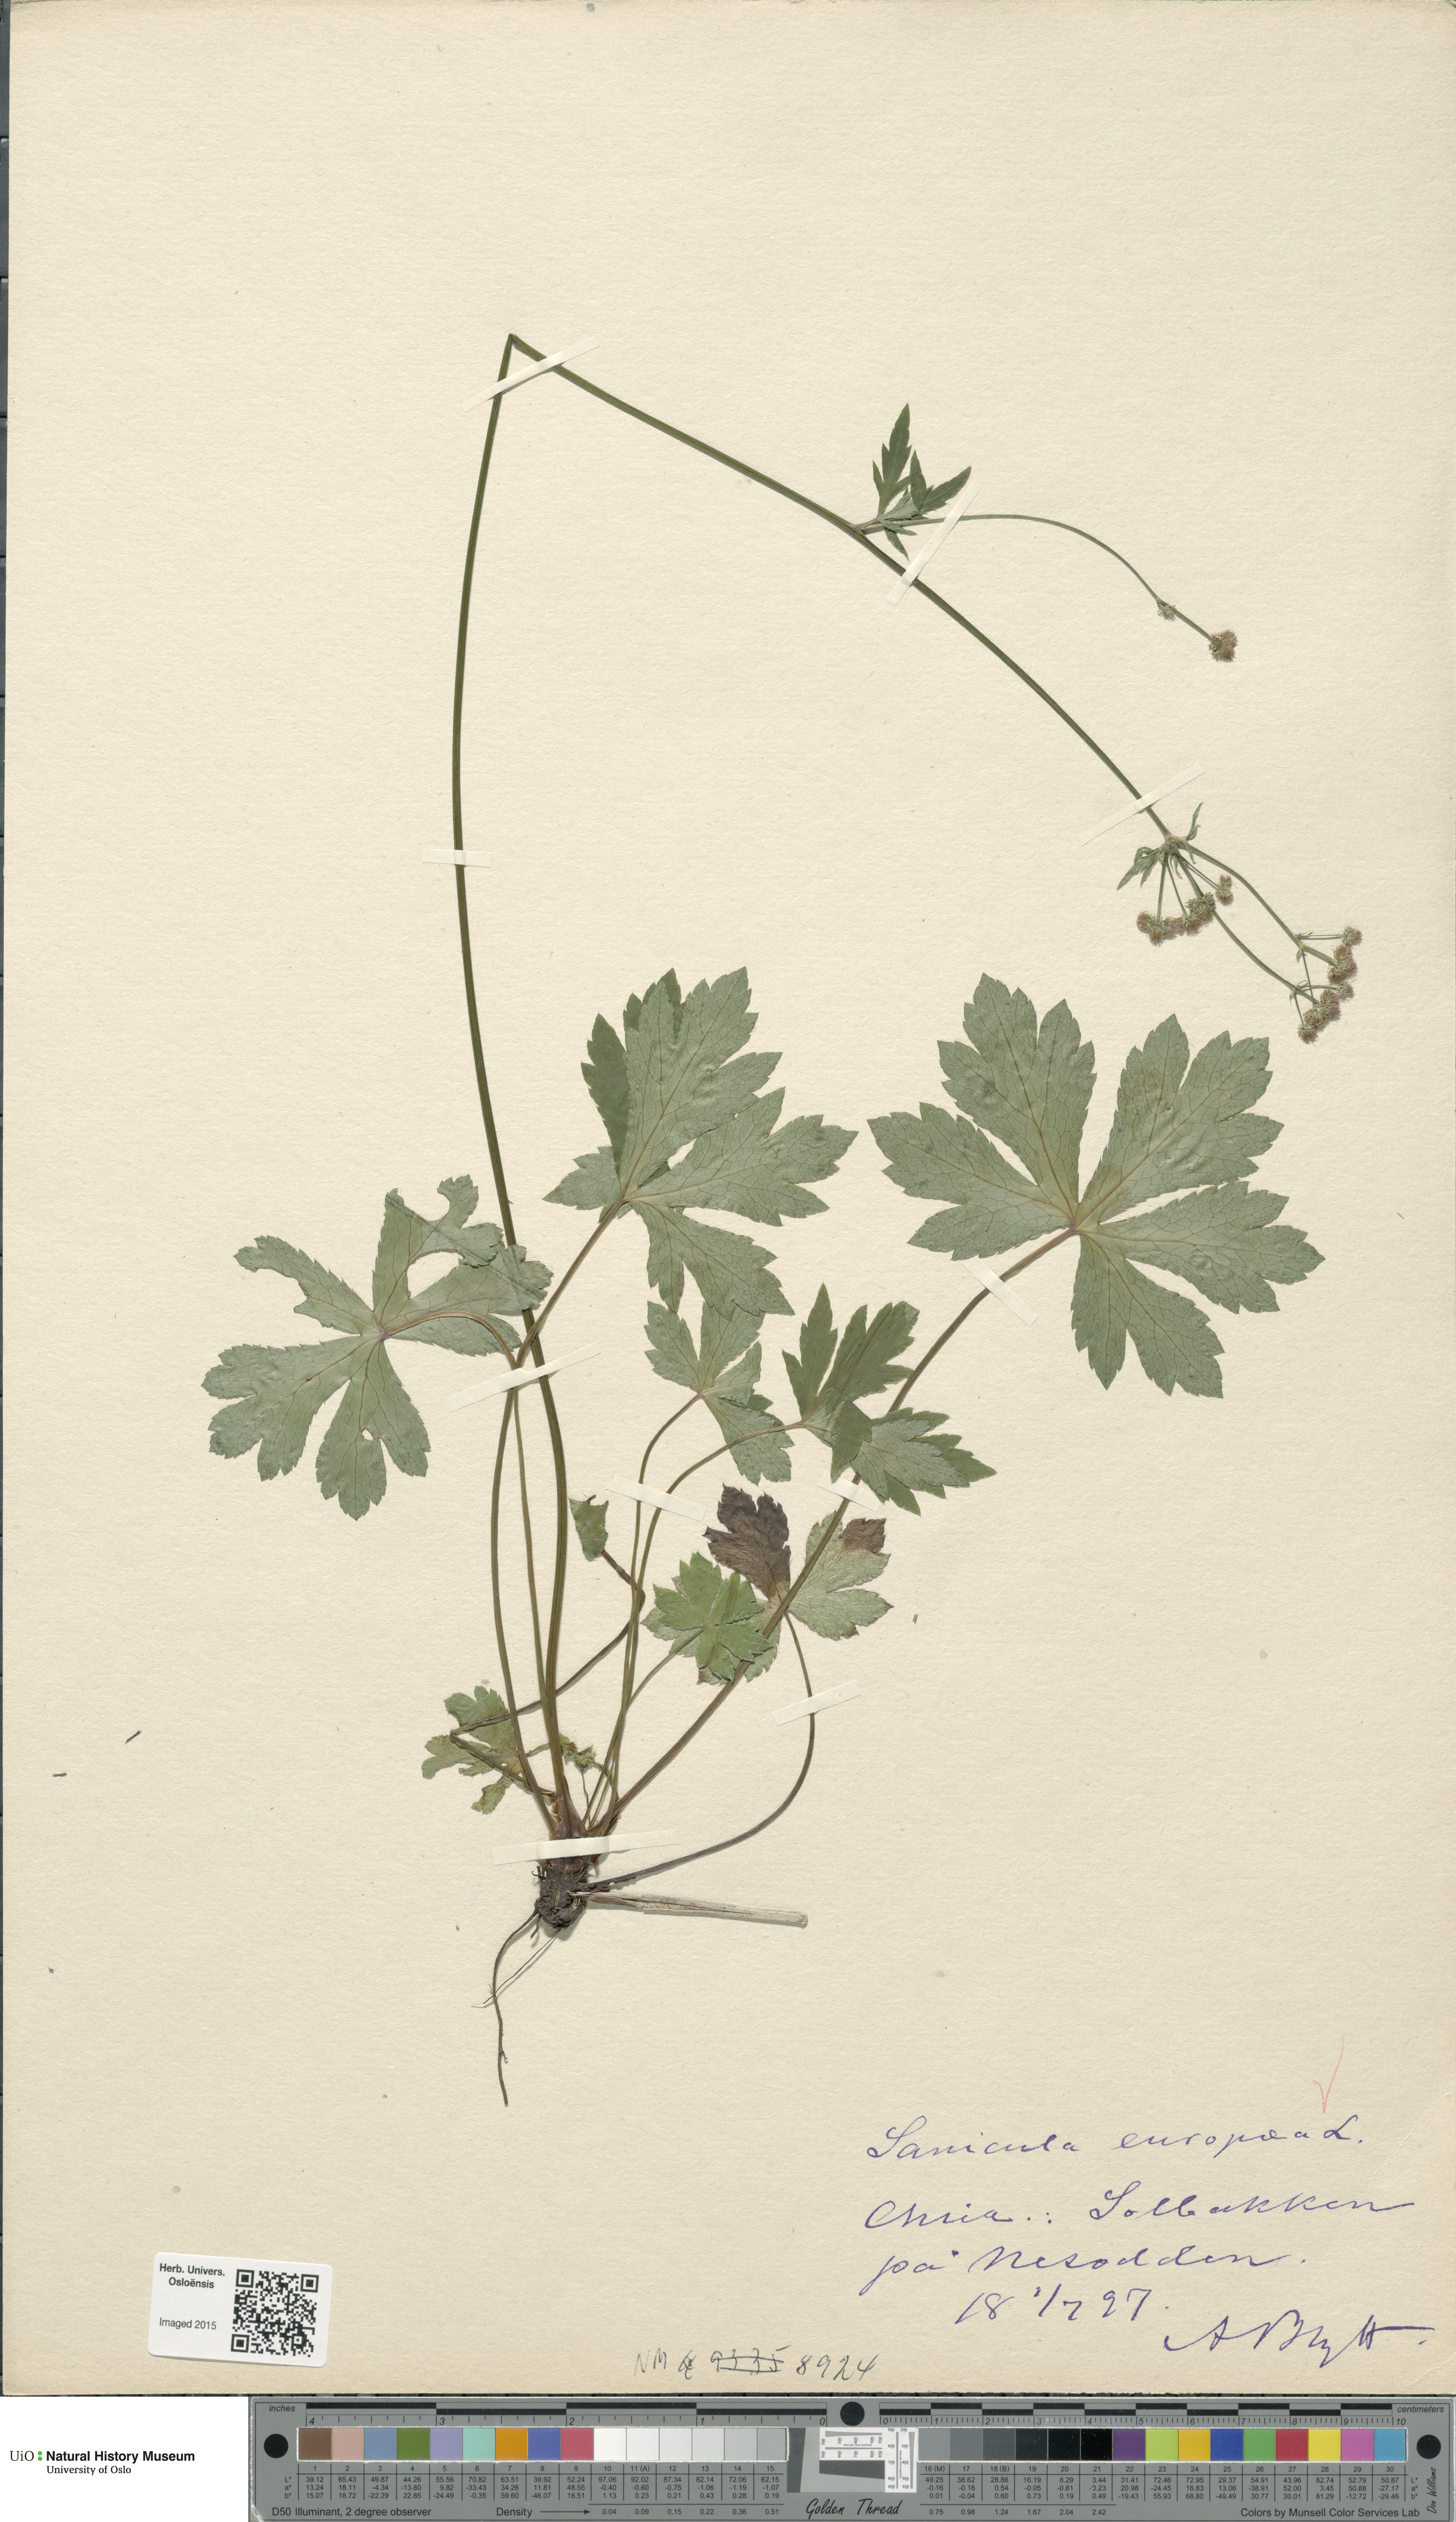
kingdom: Plantae
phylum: Tracheophyta
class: Liliopsida
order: Asparagales
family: Orchidaceae
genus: Epipactis
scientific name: Epipactis helleborine
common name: Broad-leaved helleborine
